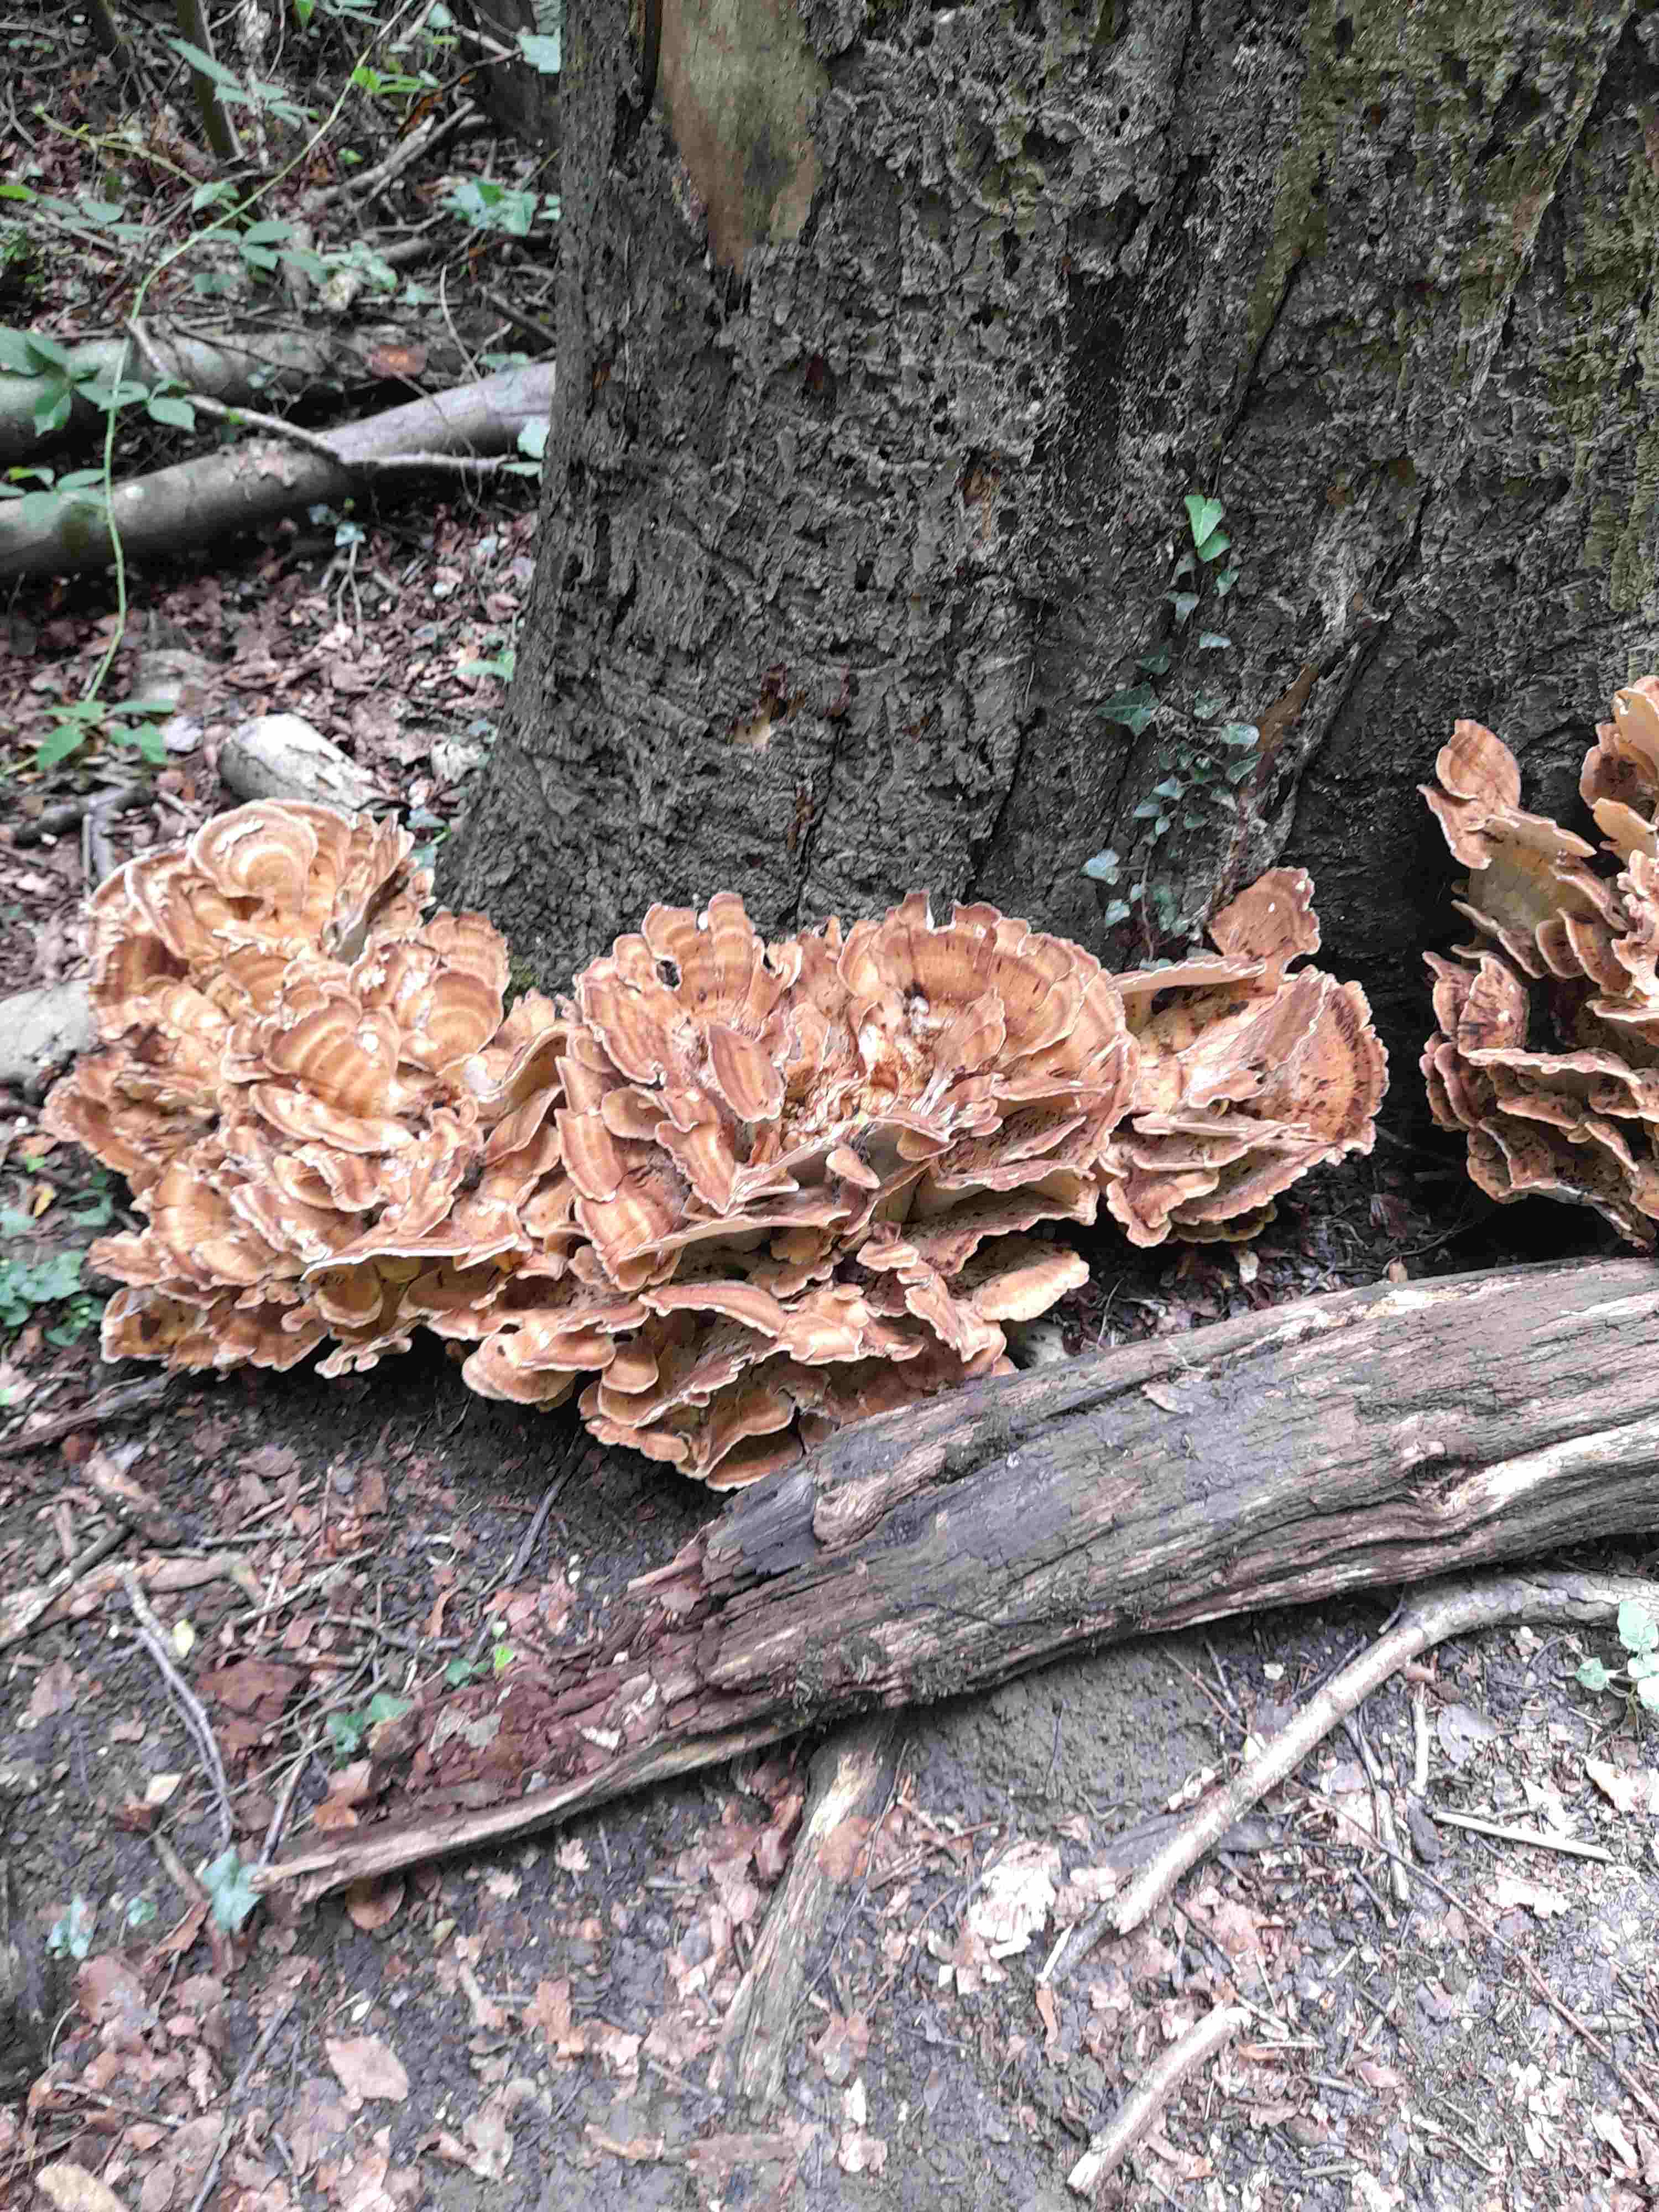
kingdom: Fungi
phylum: Basidiomycota
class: Agaricomycetes
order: Polyporales
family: Meripilaceae
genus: Meripilus
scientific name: Meripilus giganteus
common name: kæmpeporesvamp
